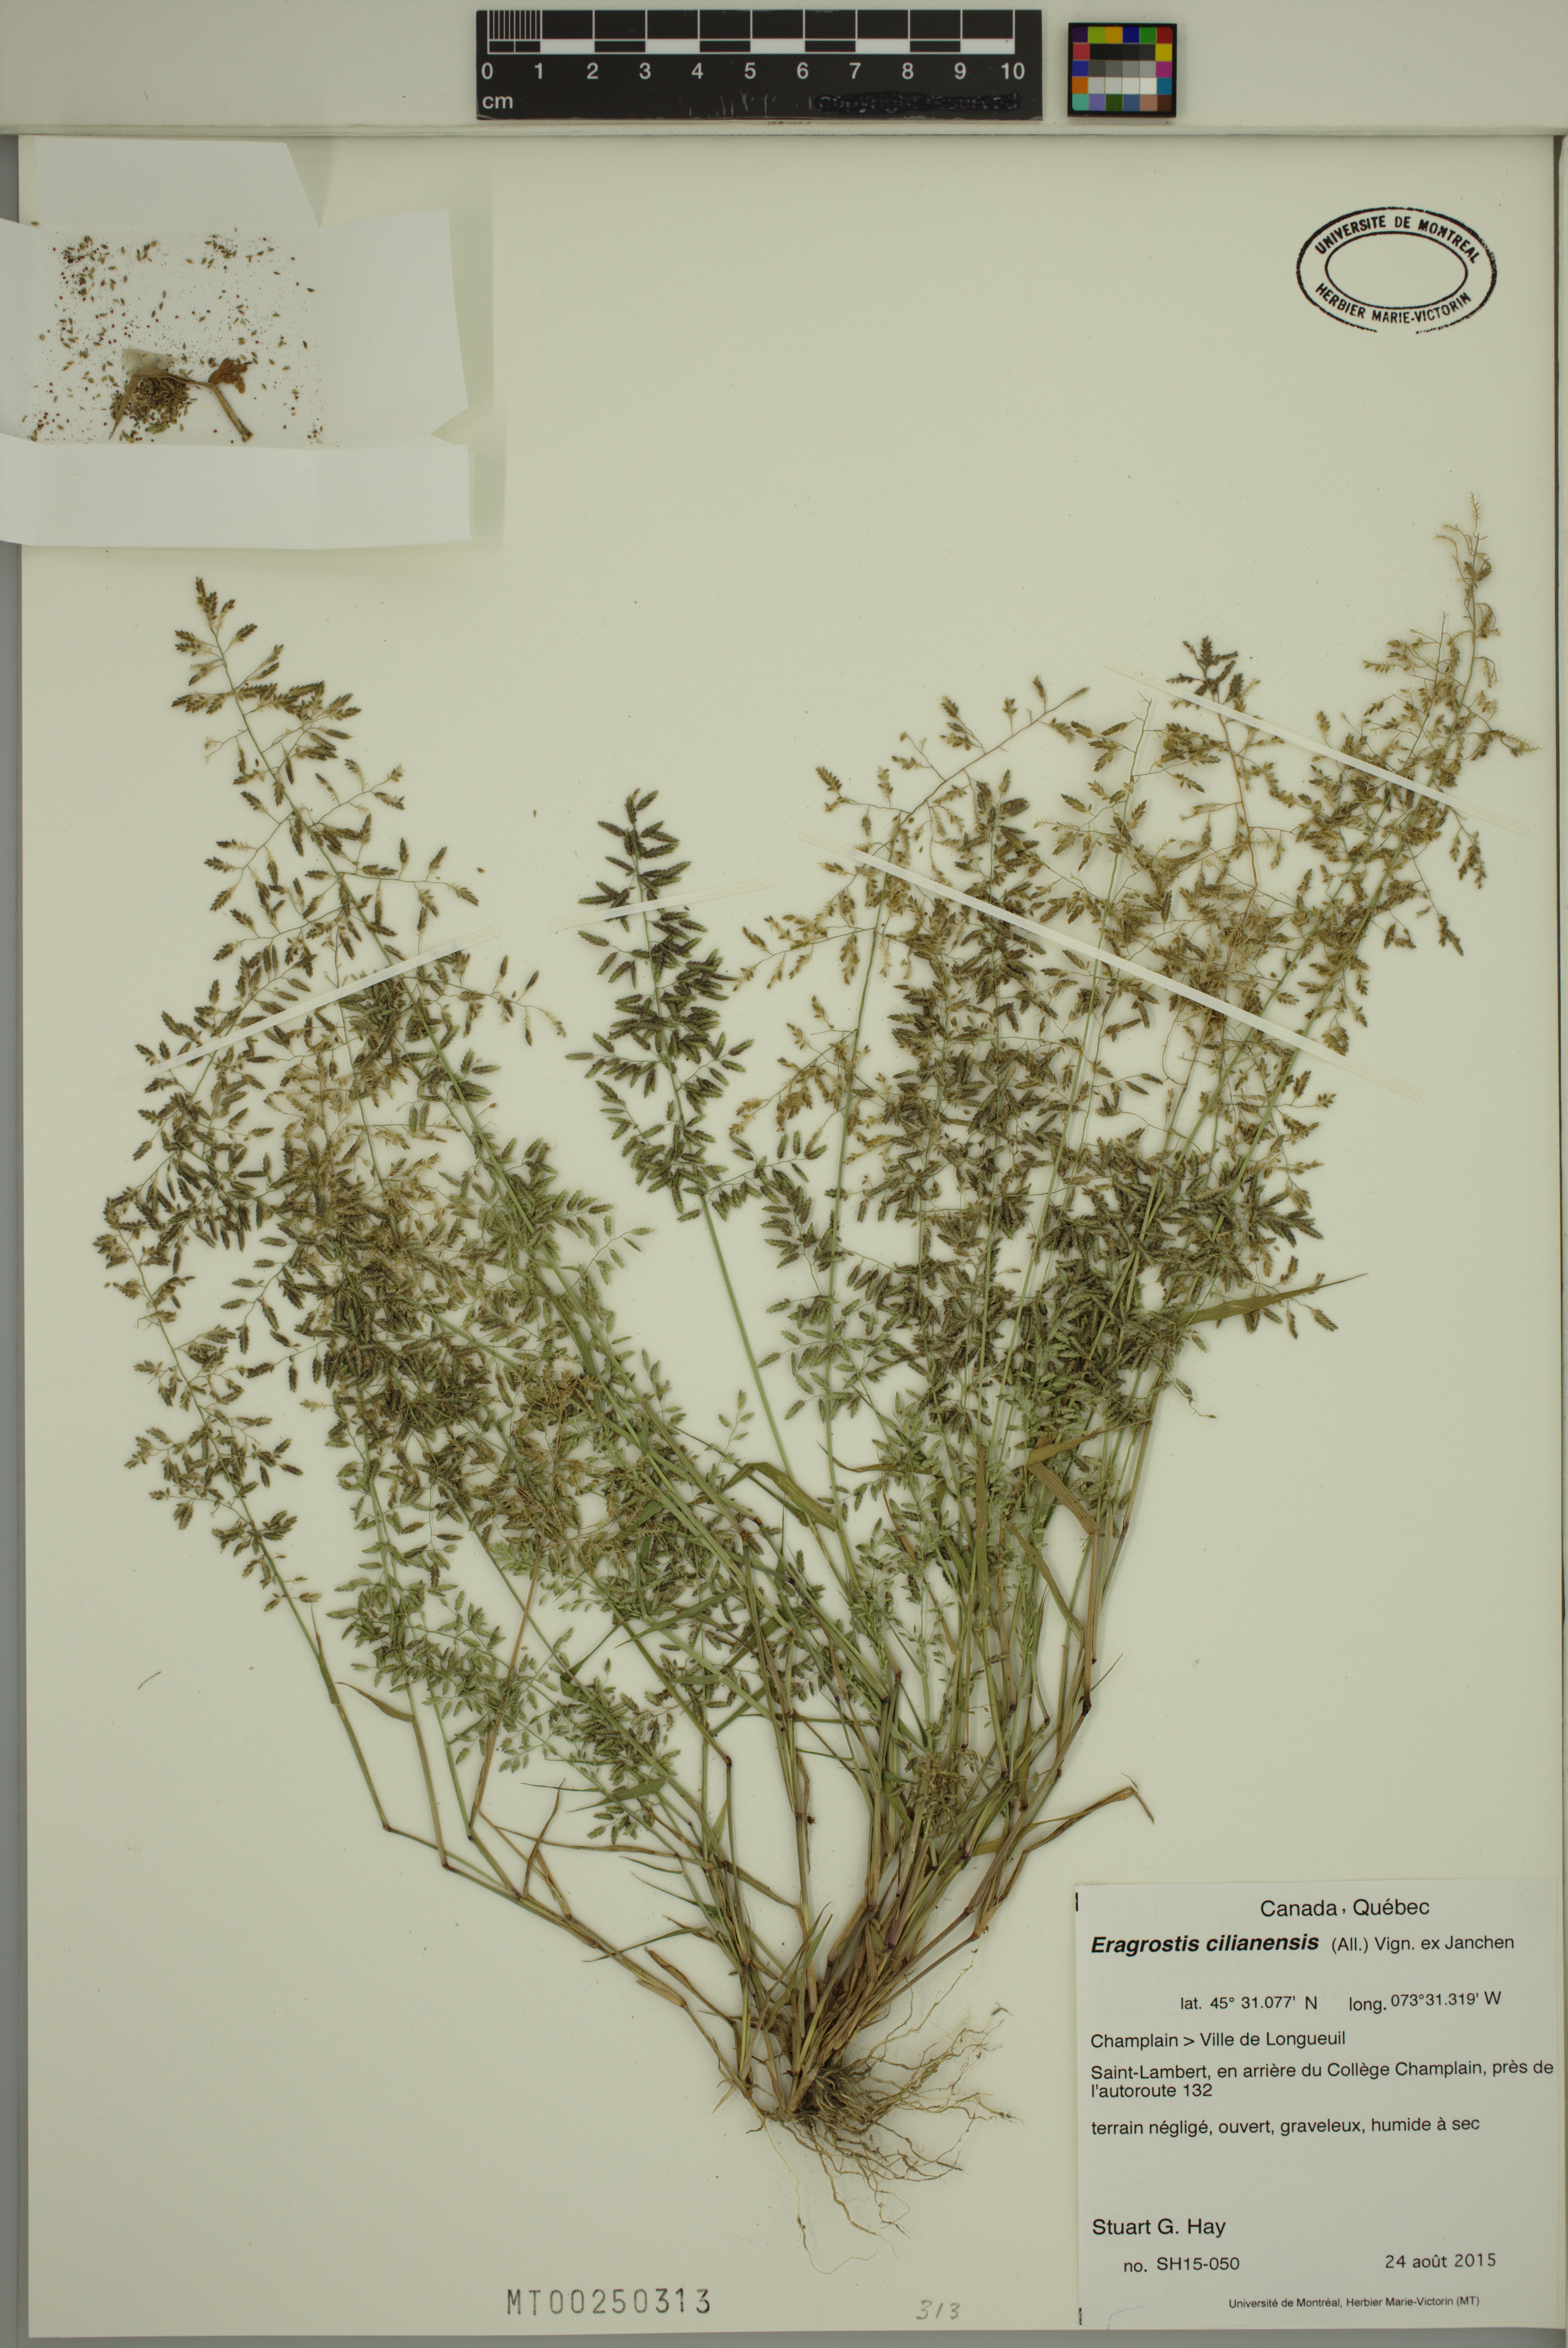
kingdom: Plantae
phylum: Tracheophyta
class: Liliopsida
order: Poales
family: Poaceae
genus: Eragrostis
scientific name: Eragrostis cilianensis
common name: Stinkgrass
